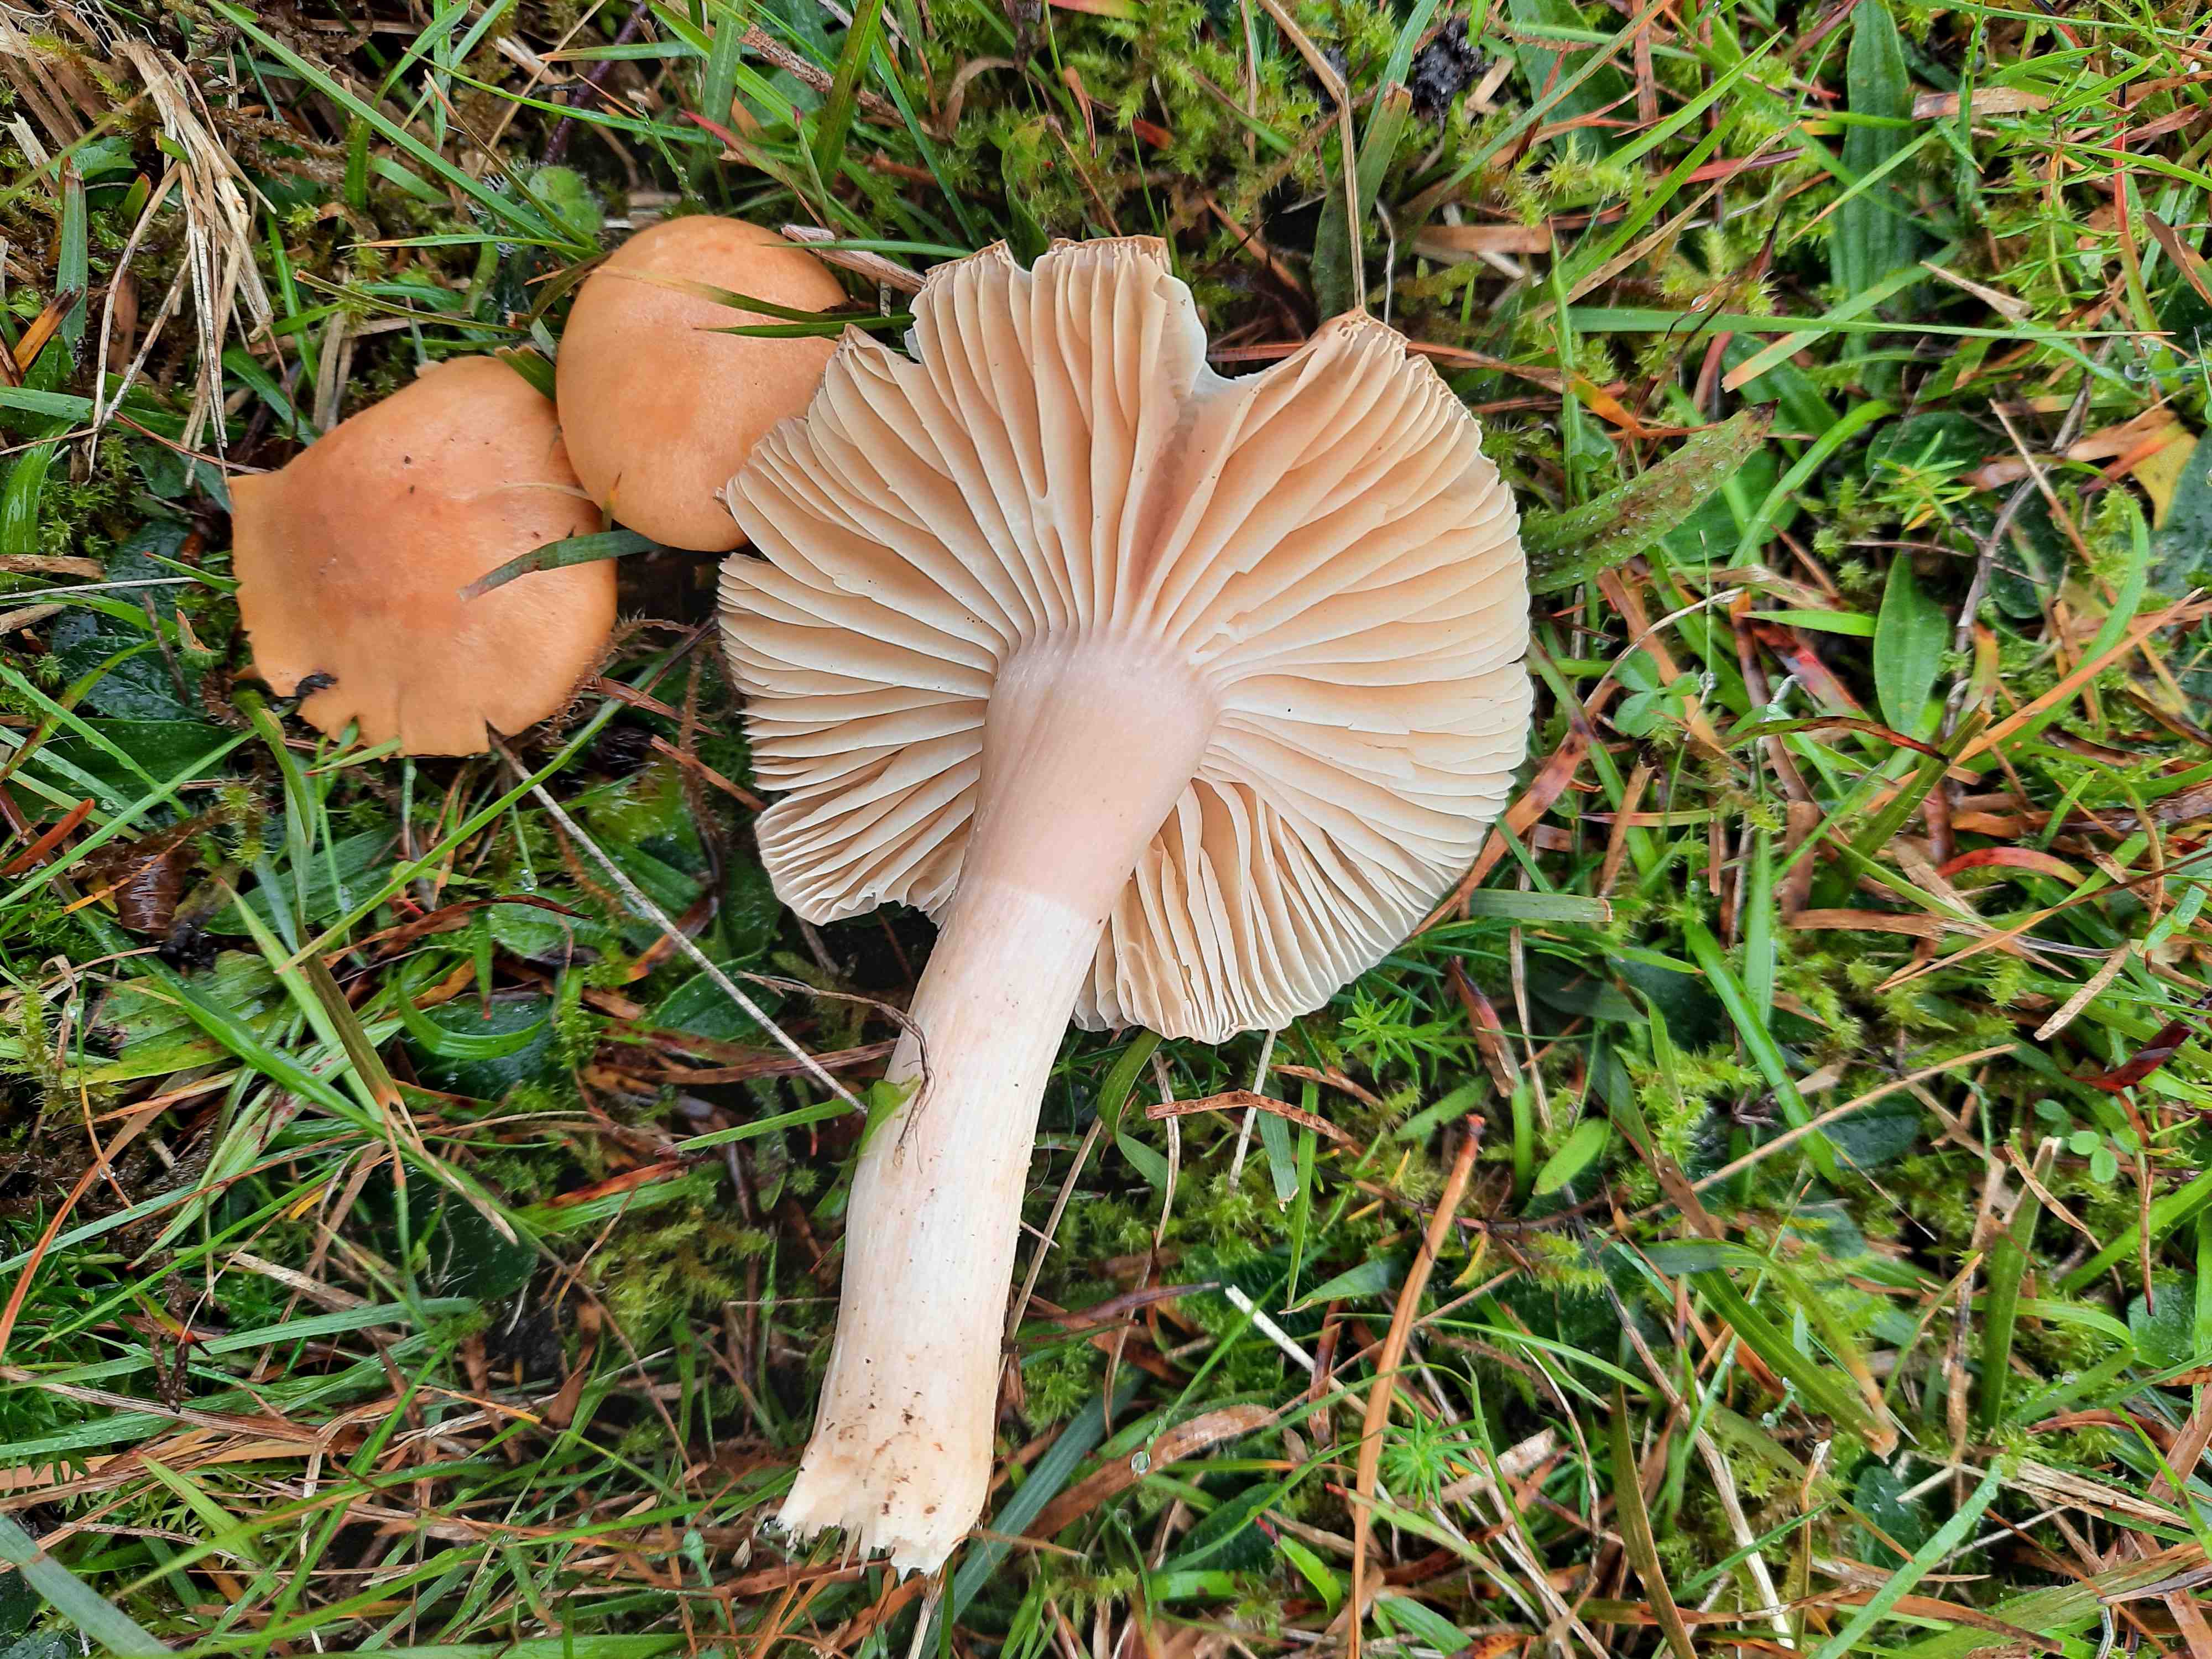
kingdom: Fungi
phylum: Basidiomycota
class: Agaricomycetes
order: Agaricales
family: Hygrophoraceae
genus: Cuphophyllus
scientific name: Cuphophyllus pratensis
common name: eng-vokshat
